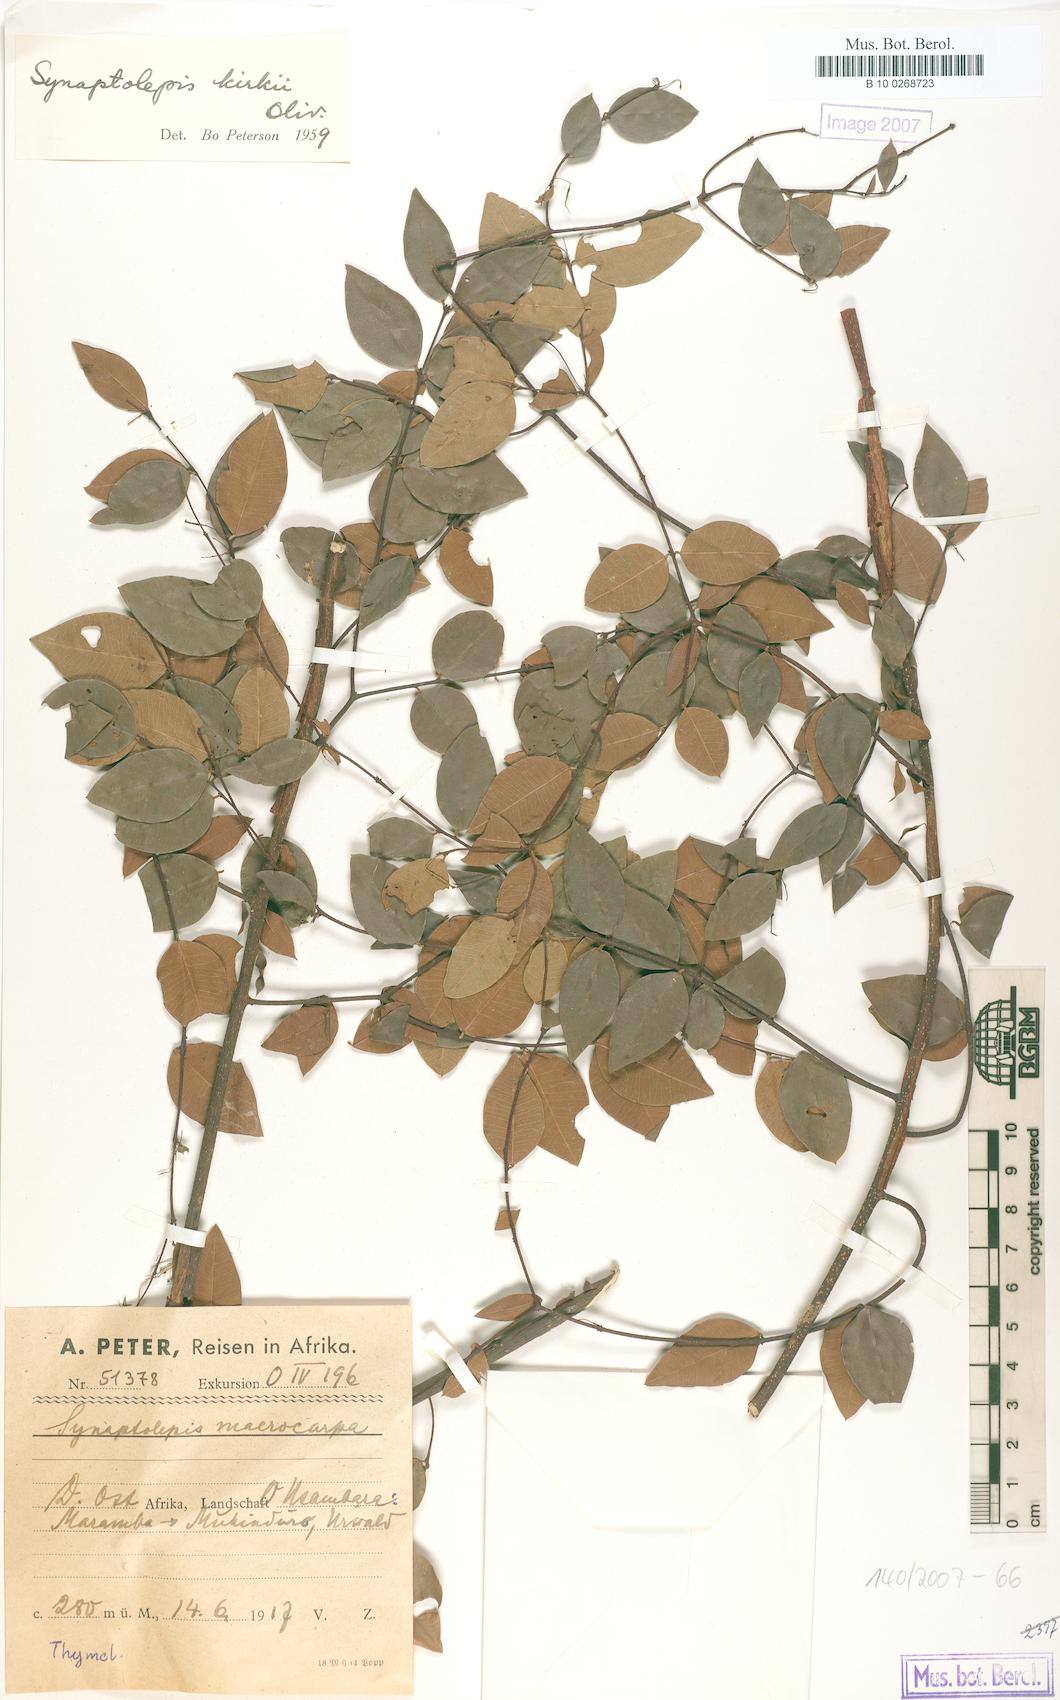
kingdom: Plantae
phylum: Tracheophyta
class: Magnoliopsida
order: Malvales
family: Thymelaeaceae
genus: Synaptolepis
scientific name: Synaptolepis kirkii
